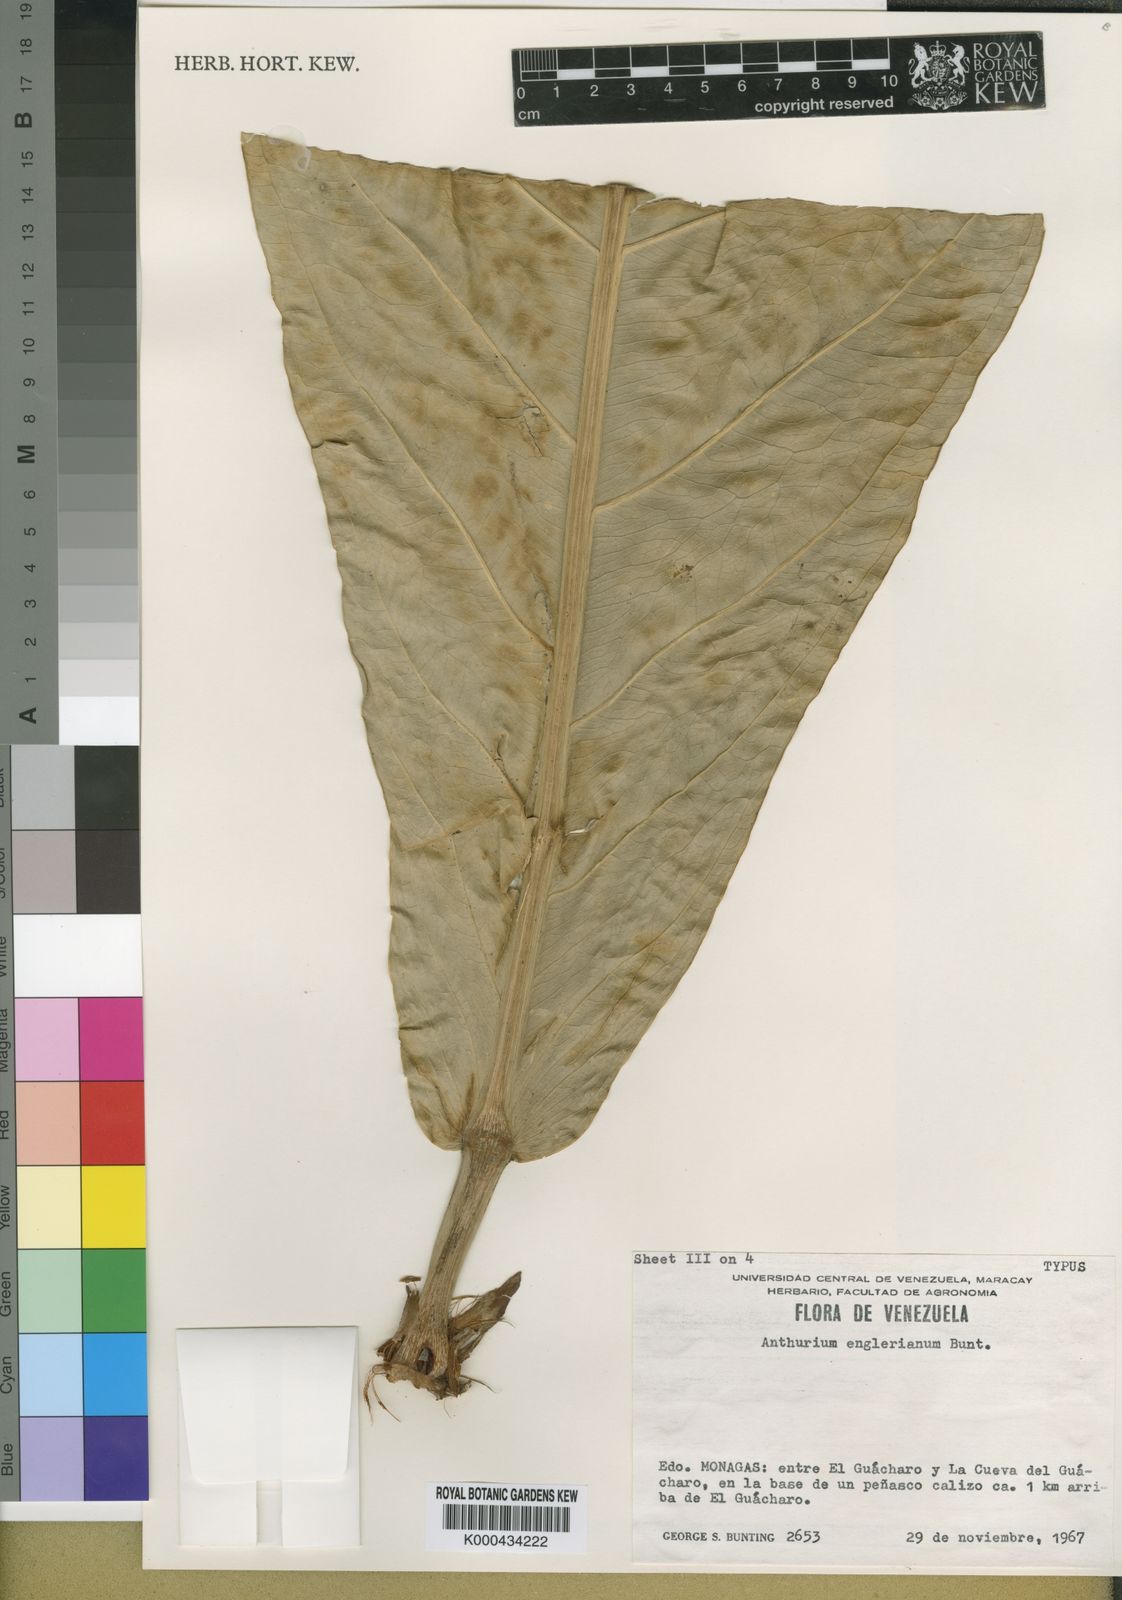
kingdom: Plantae
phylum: Tracheophyta
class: Liliopsida
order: Alismatales
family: Araceae
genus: Anthurium
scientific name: Anthurium jenmanii
